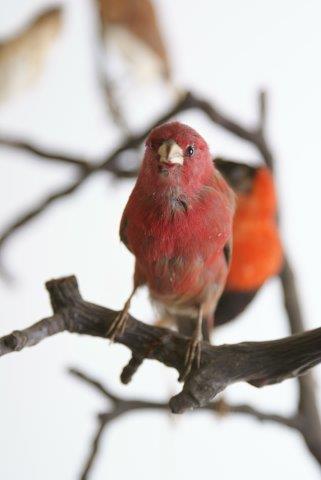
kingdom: Animalia
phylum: Chordata
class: Aves
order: Passeriformes
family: Estrildidae
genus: Lagonosticta
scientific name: Lagonosticta senegala
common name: Vuurvinkje
